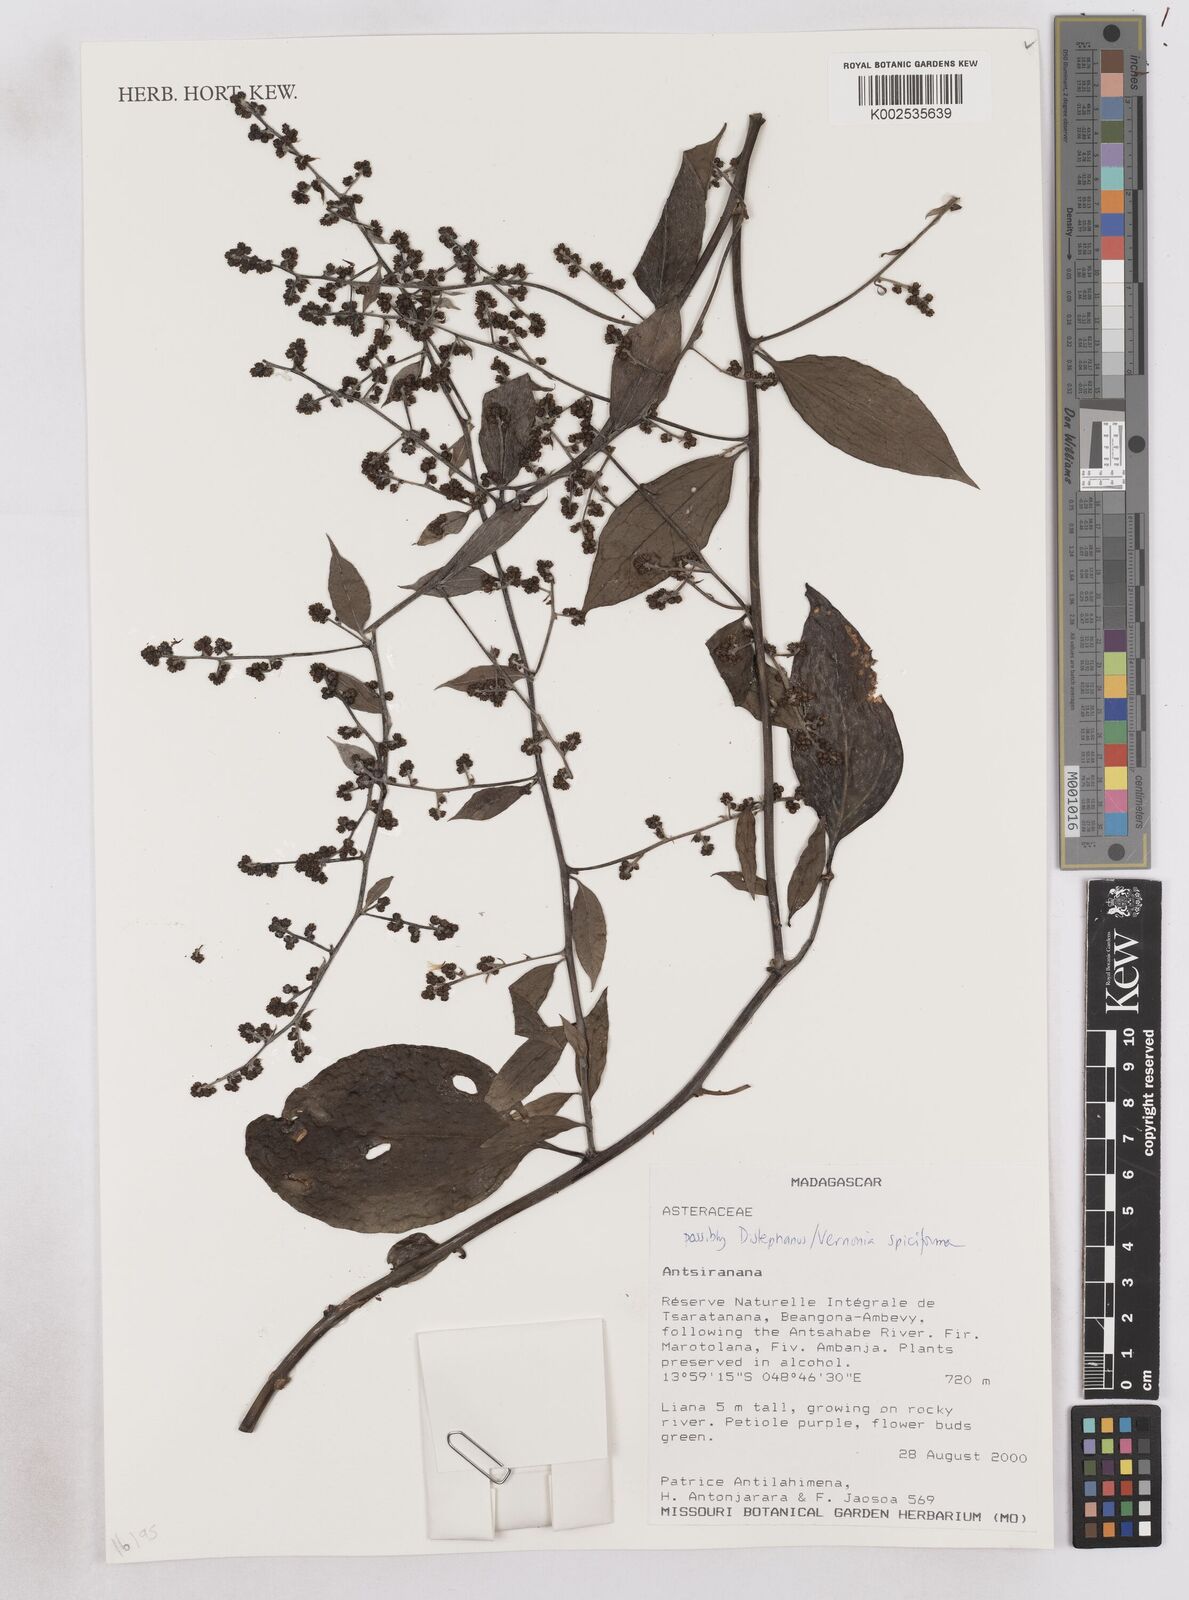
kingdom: Plantae
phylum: Tracheophyta
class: Magnoliopsida
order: Asterales
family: Asteraceae
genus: Distephanus
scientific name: Distephanus spiciformis
